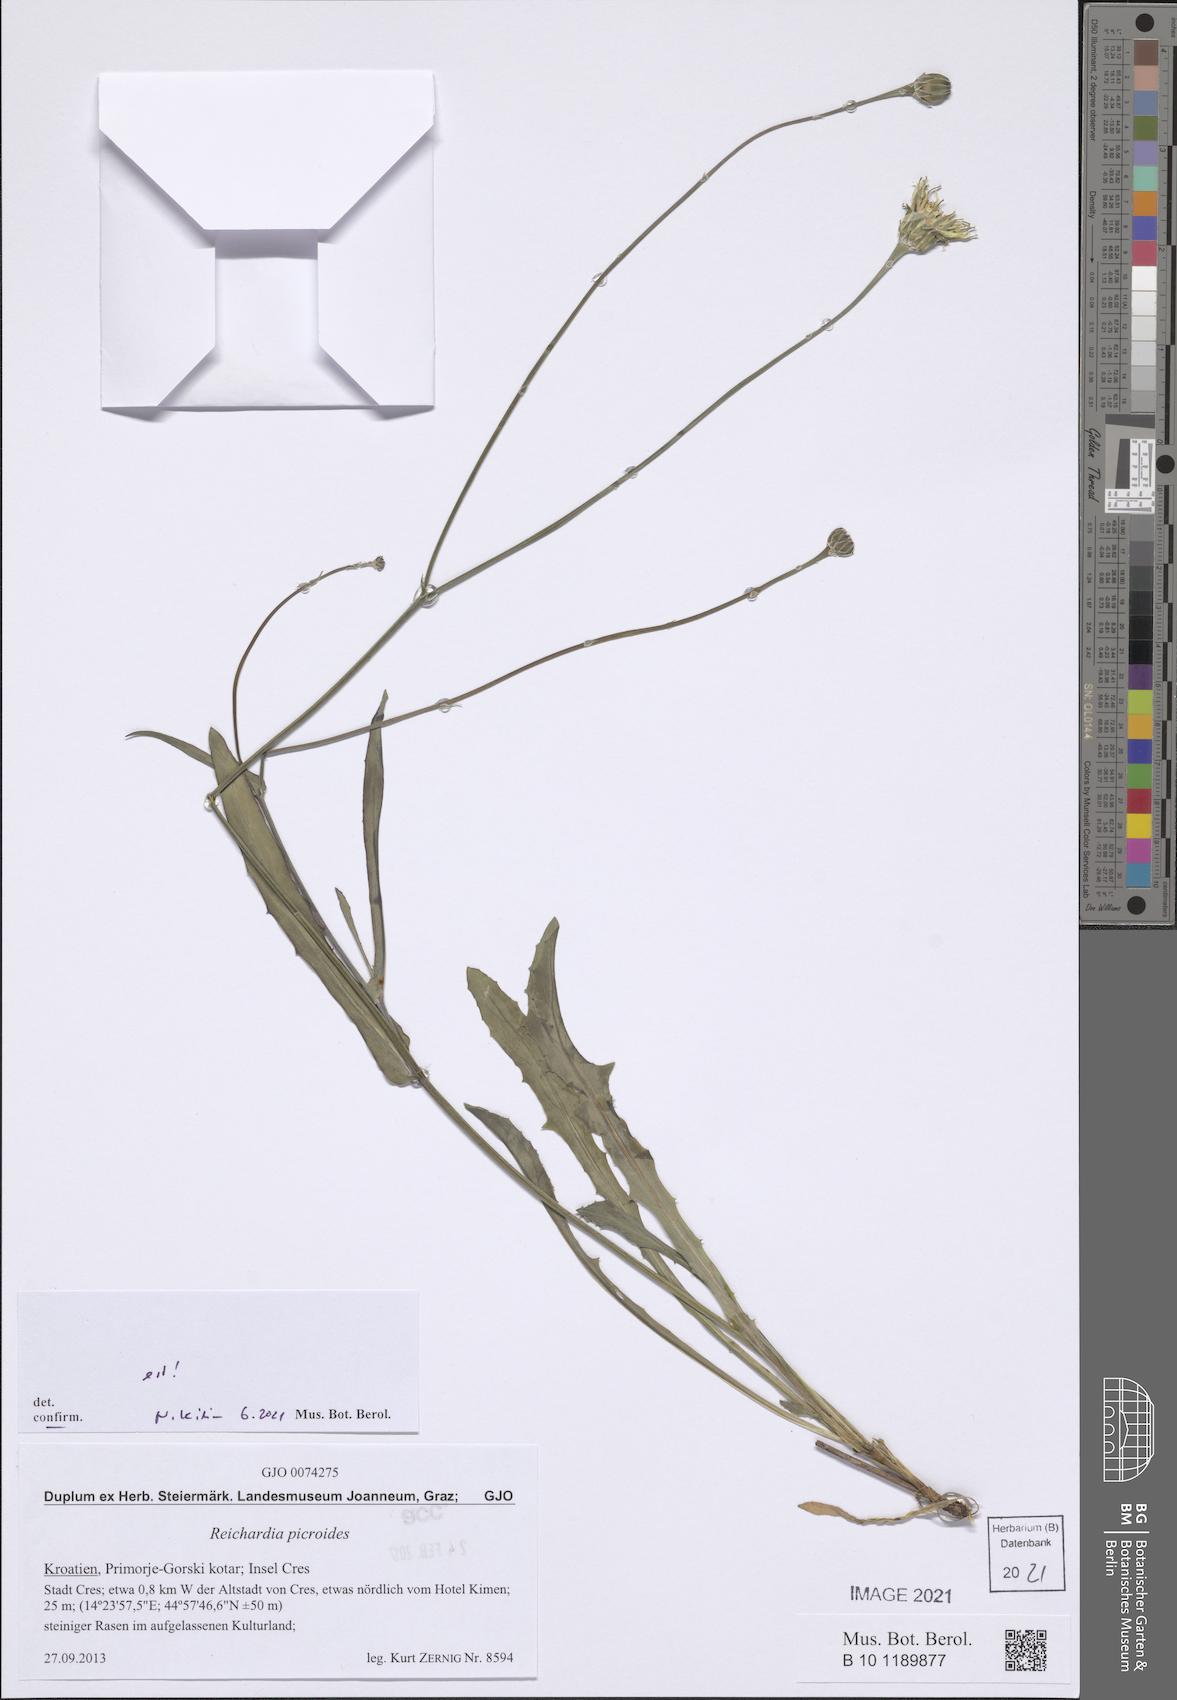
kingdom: Plantae
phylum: Tracheophyta
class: Magnoliopsida
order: Asterales
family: Asteraceae
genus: Reichardia
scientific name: Reichardia picroides
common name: Common brighteyes
